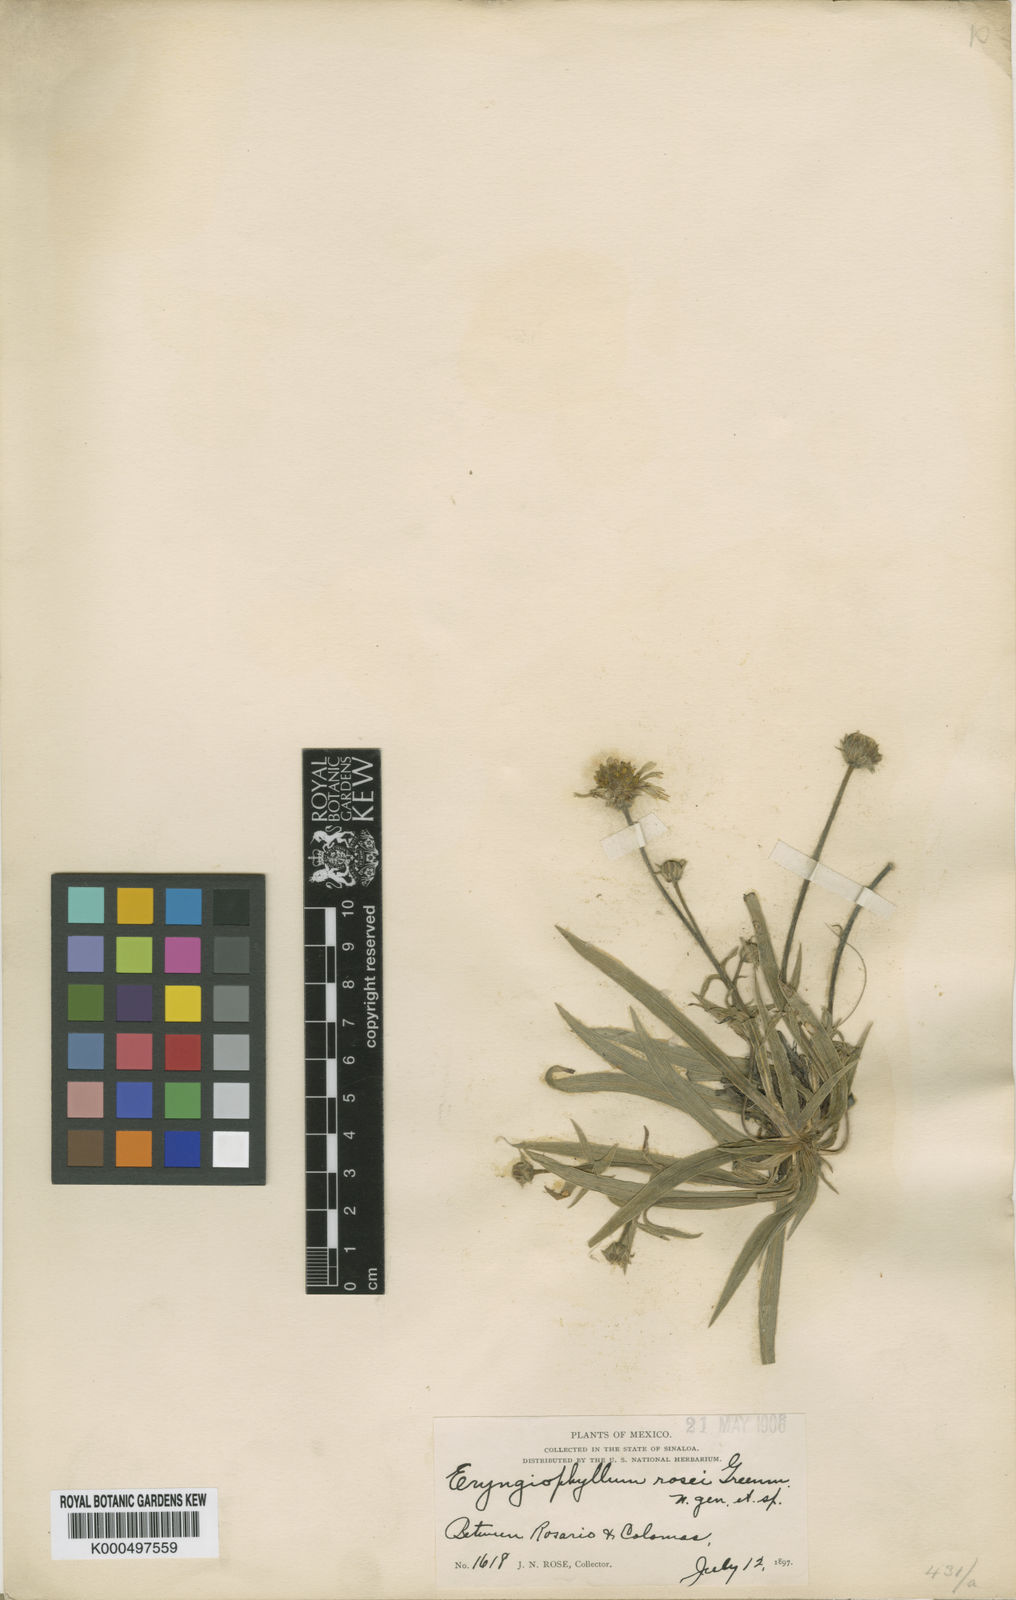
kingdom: Plantae
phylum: Tracheophyta
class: Magnoliopsida
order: Asterales
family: Asteraceae
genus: Chrysanthellum
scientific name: Chrysanthellum rosei
